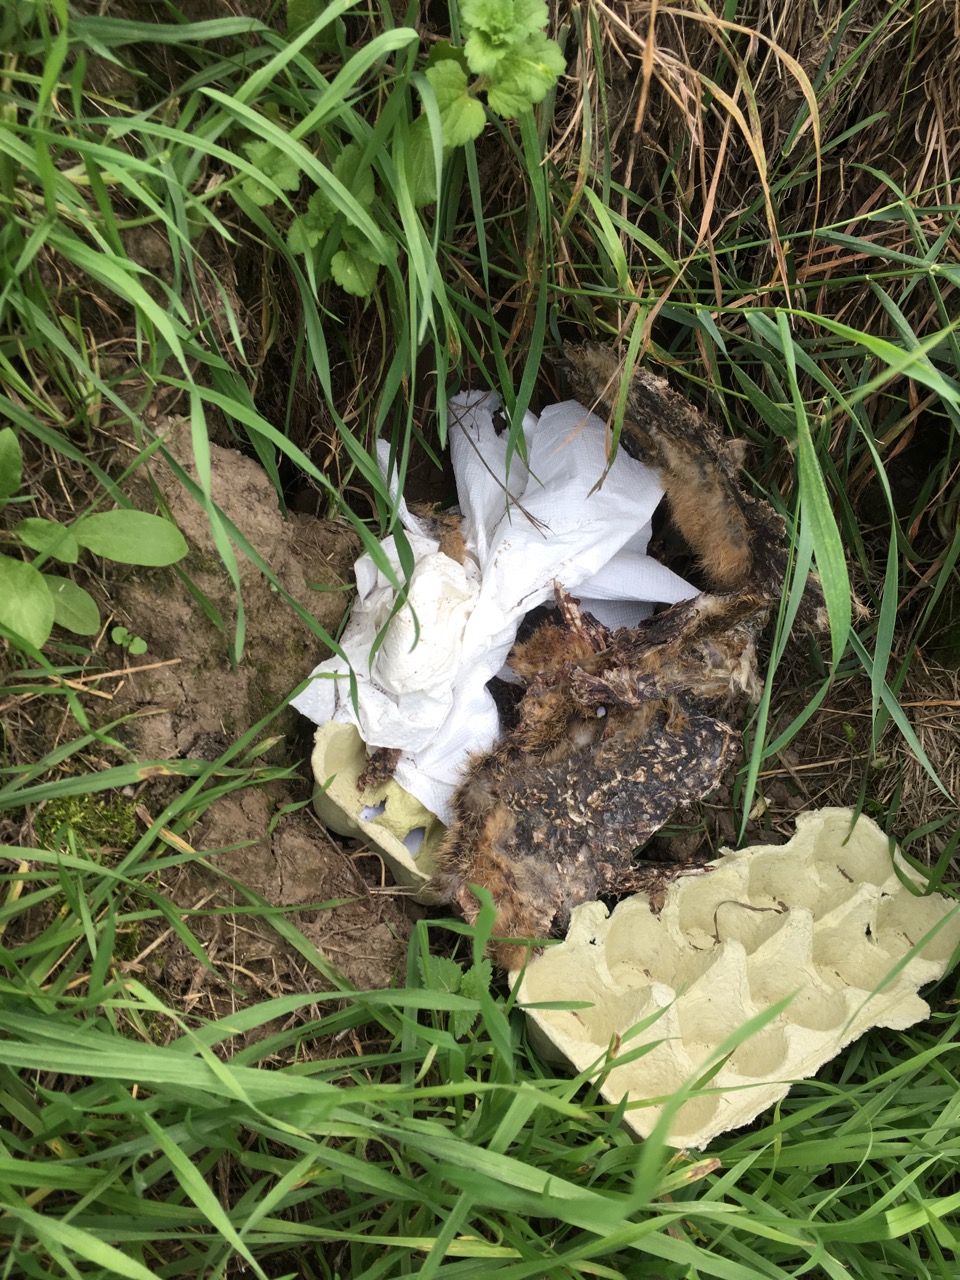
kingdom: Animalia
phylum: Chordata
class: Mammalia
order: Lagomorpha
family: Leporidae
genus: Lepus
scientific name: Lepus europaeus
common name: European hare
